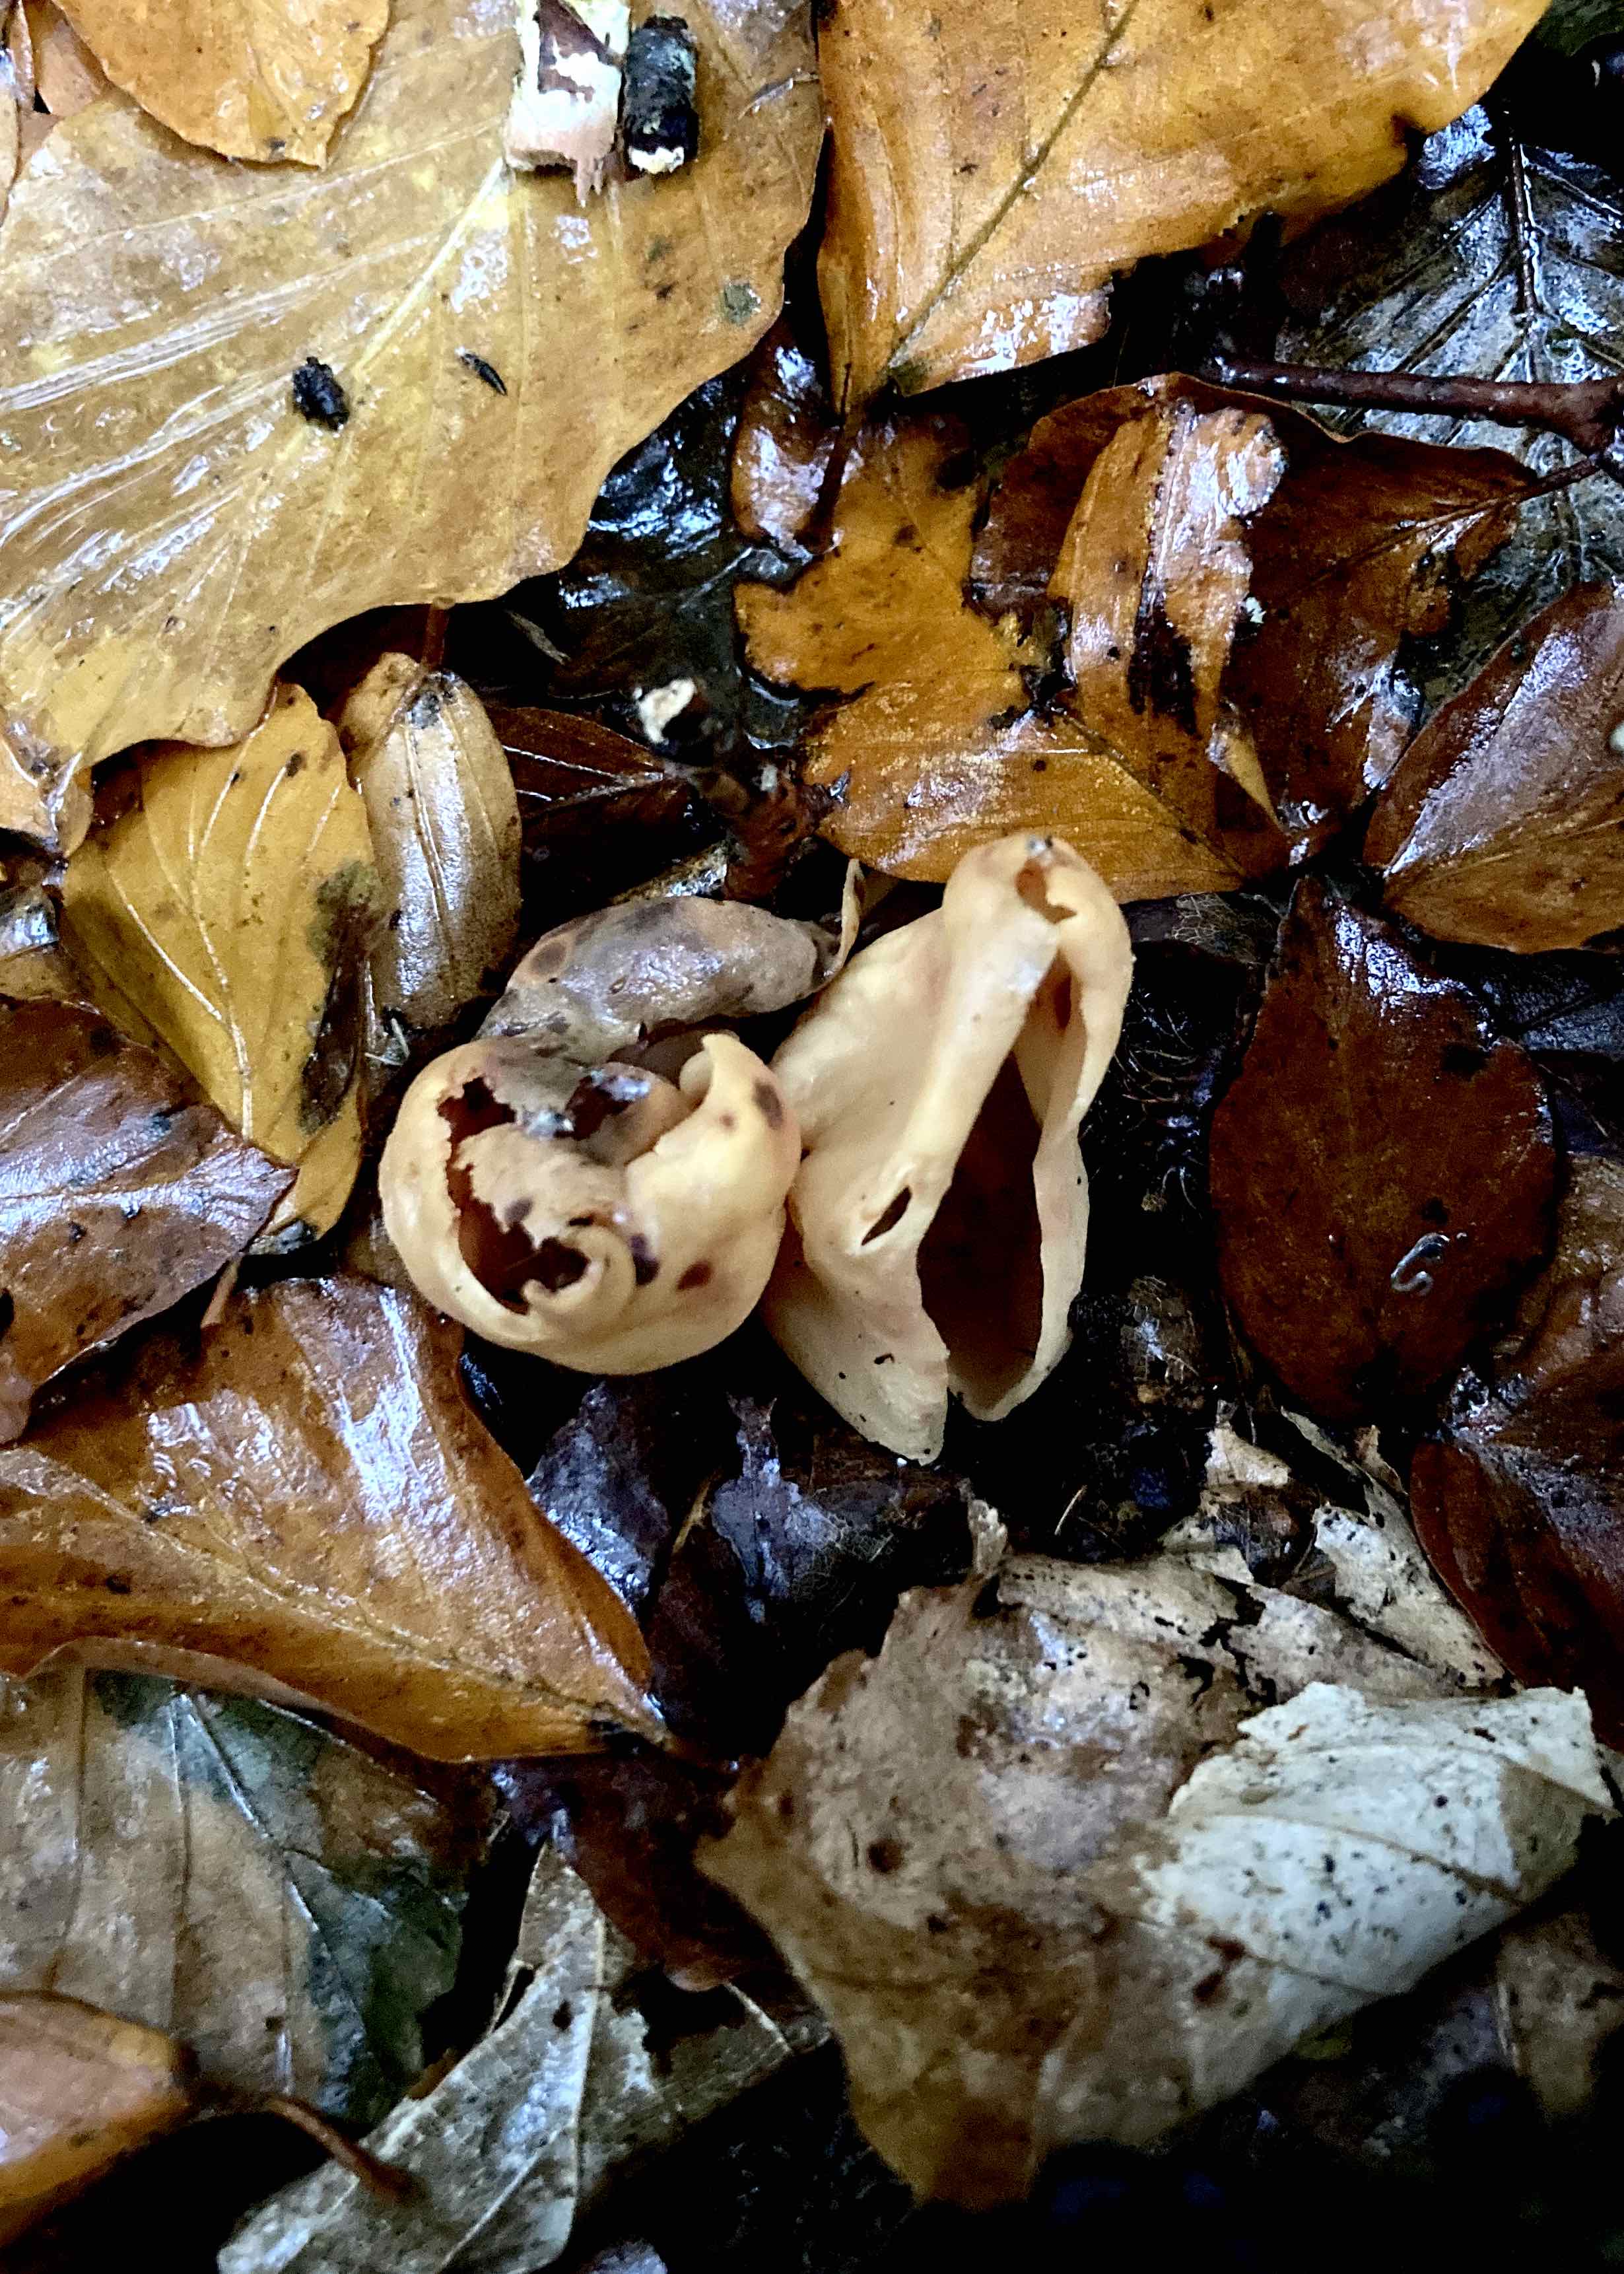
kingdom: Fungi
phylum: Ascomycota
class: Pezizomycetes
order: Pezizales
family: Otideaceae
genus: Otidea
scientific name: Otidea
